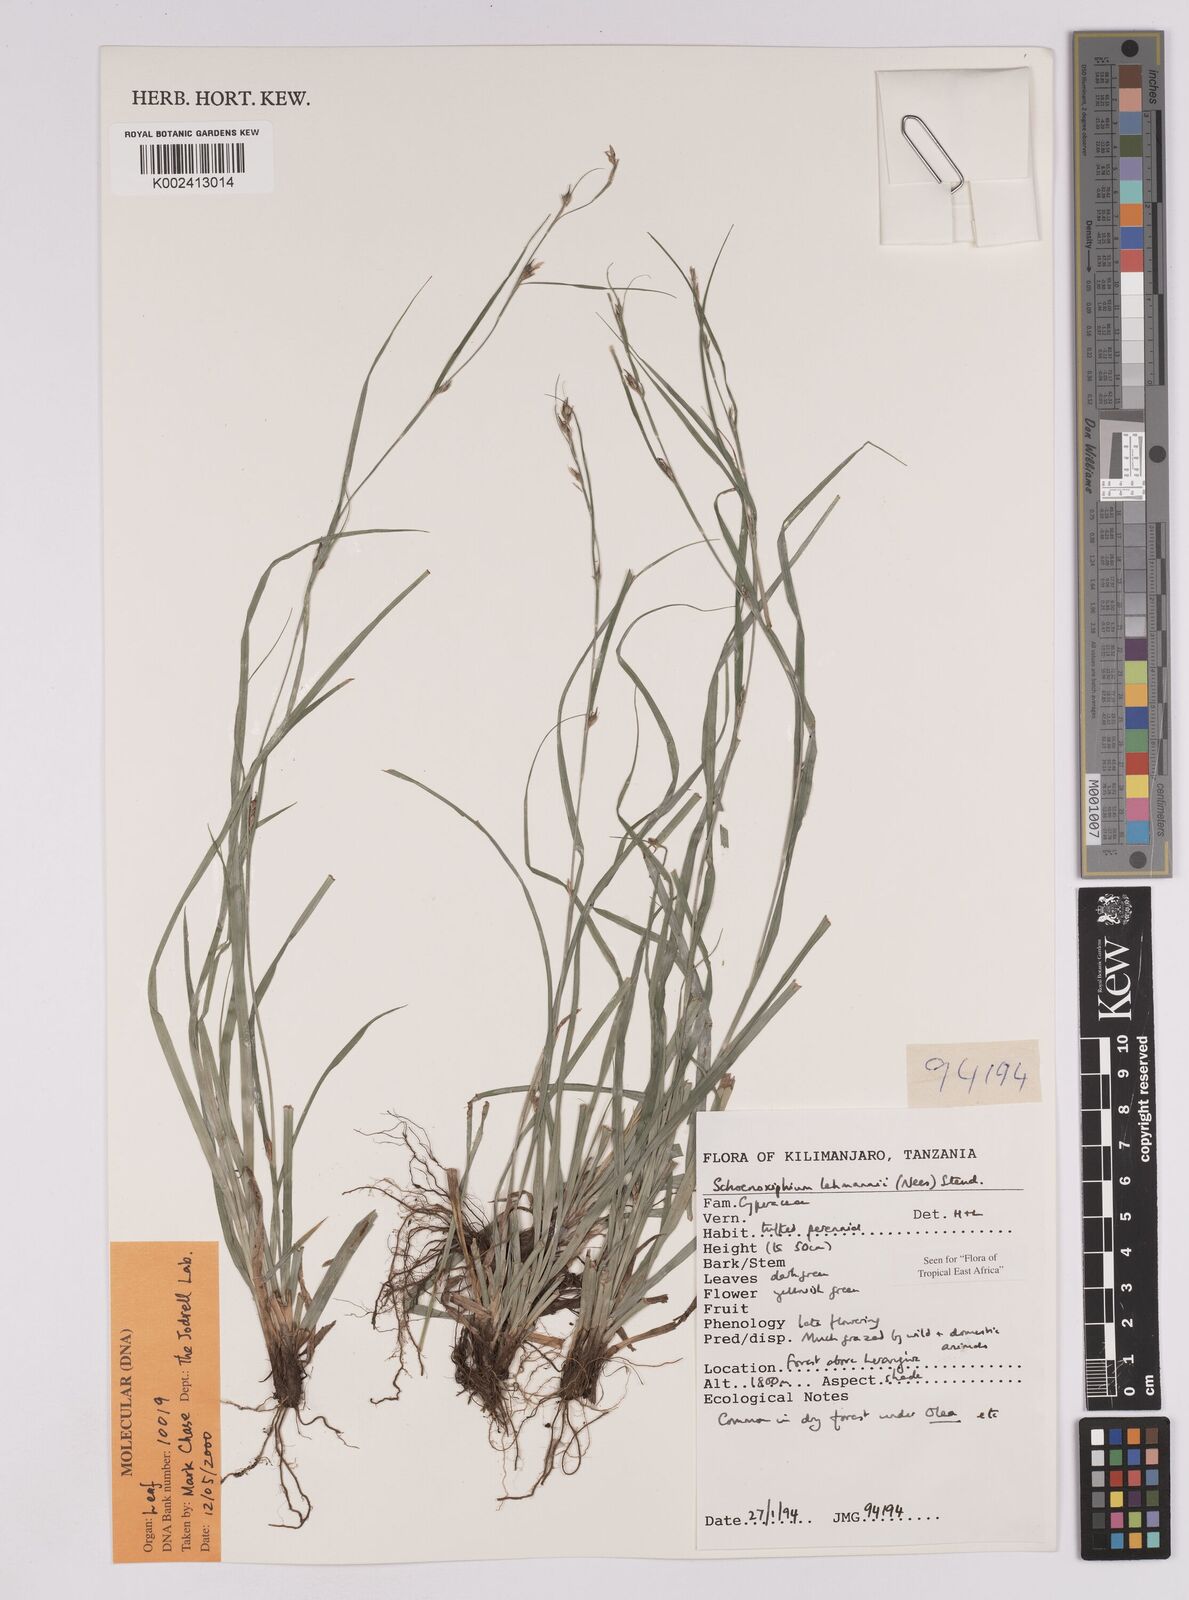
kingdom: Plantae
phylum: Tracheophyta
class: Liliopsida
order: Poales
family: Cyperaceae
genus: Carex
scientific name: Carex uhligii
